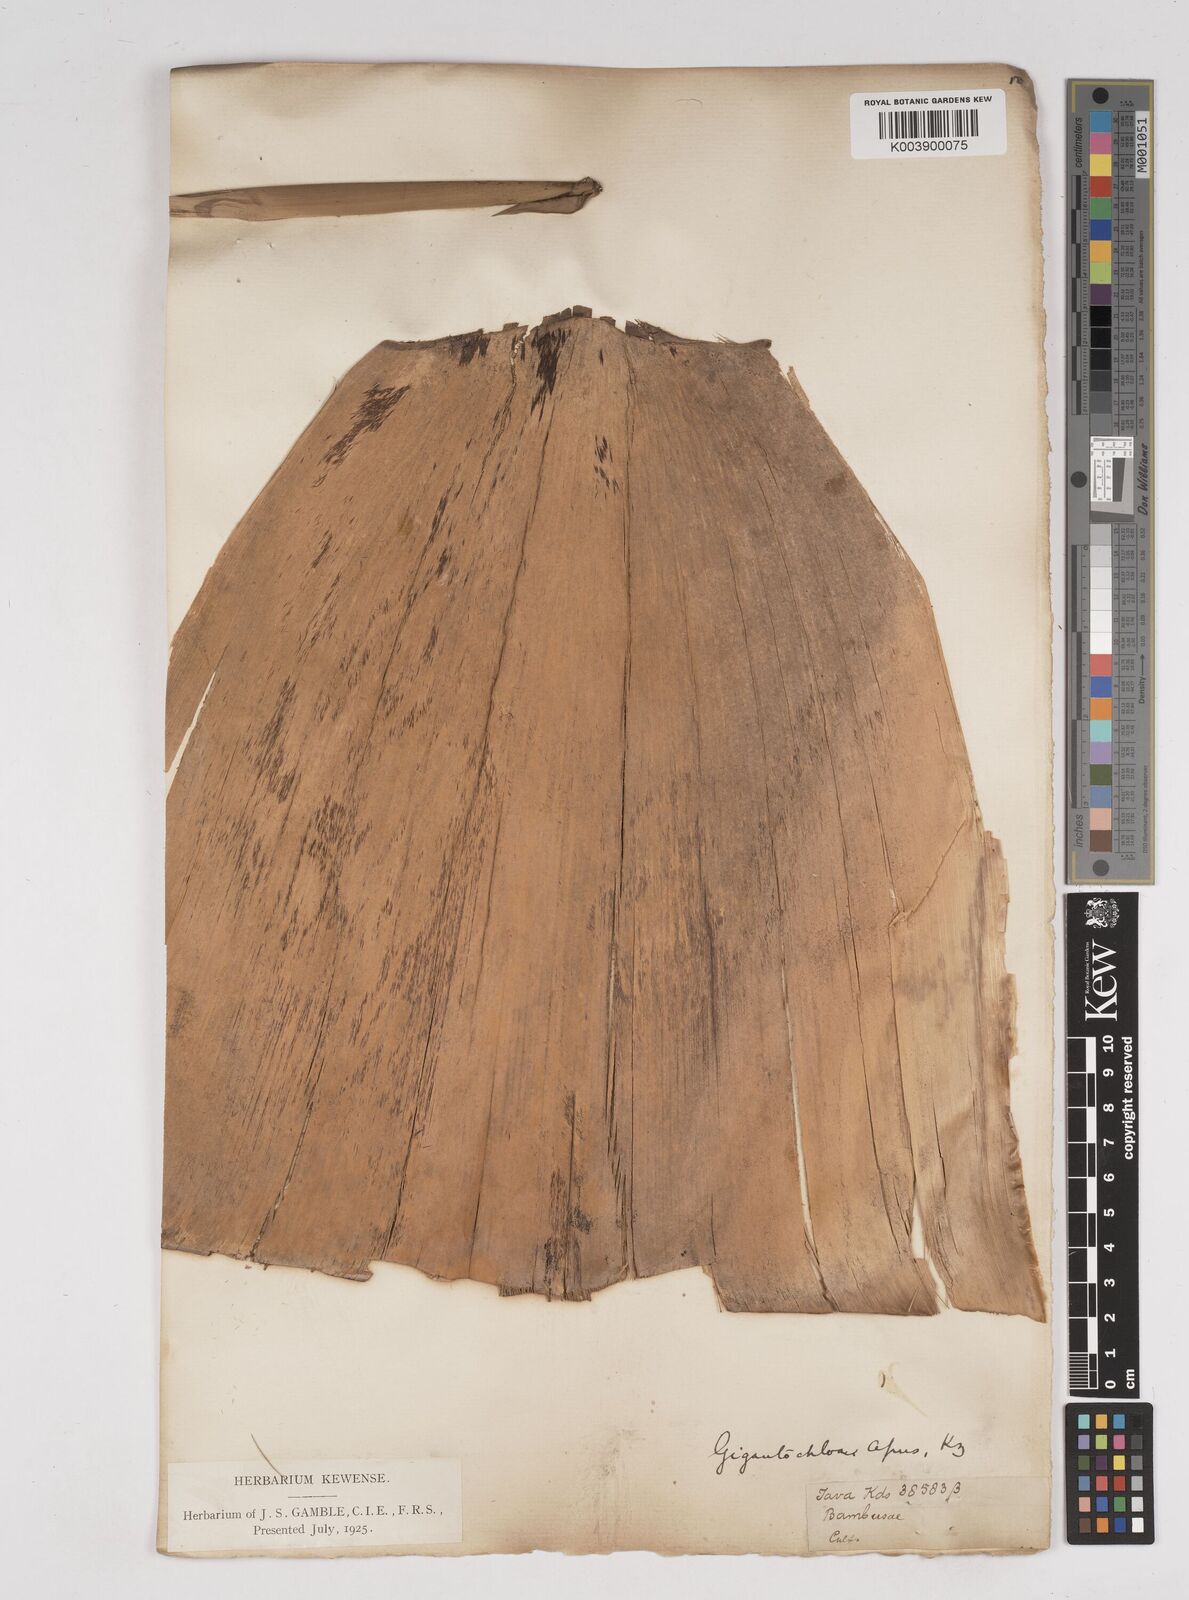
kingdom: Plantae
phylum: Tracheophyta
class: Liliopsida
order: Poales
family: Poaceae
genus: Gigantochloa
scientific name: Gigantochloa apus
